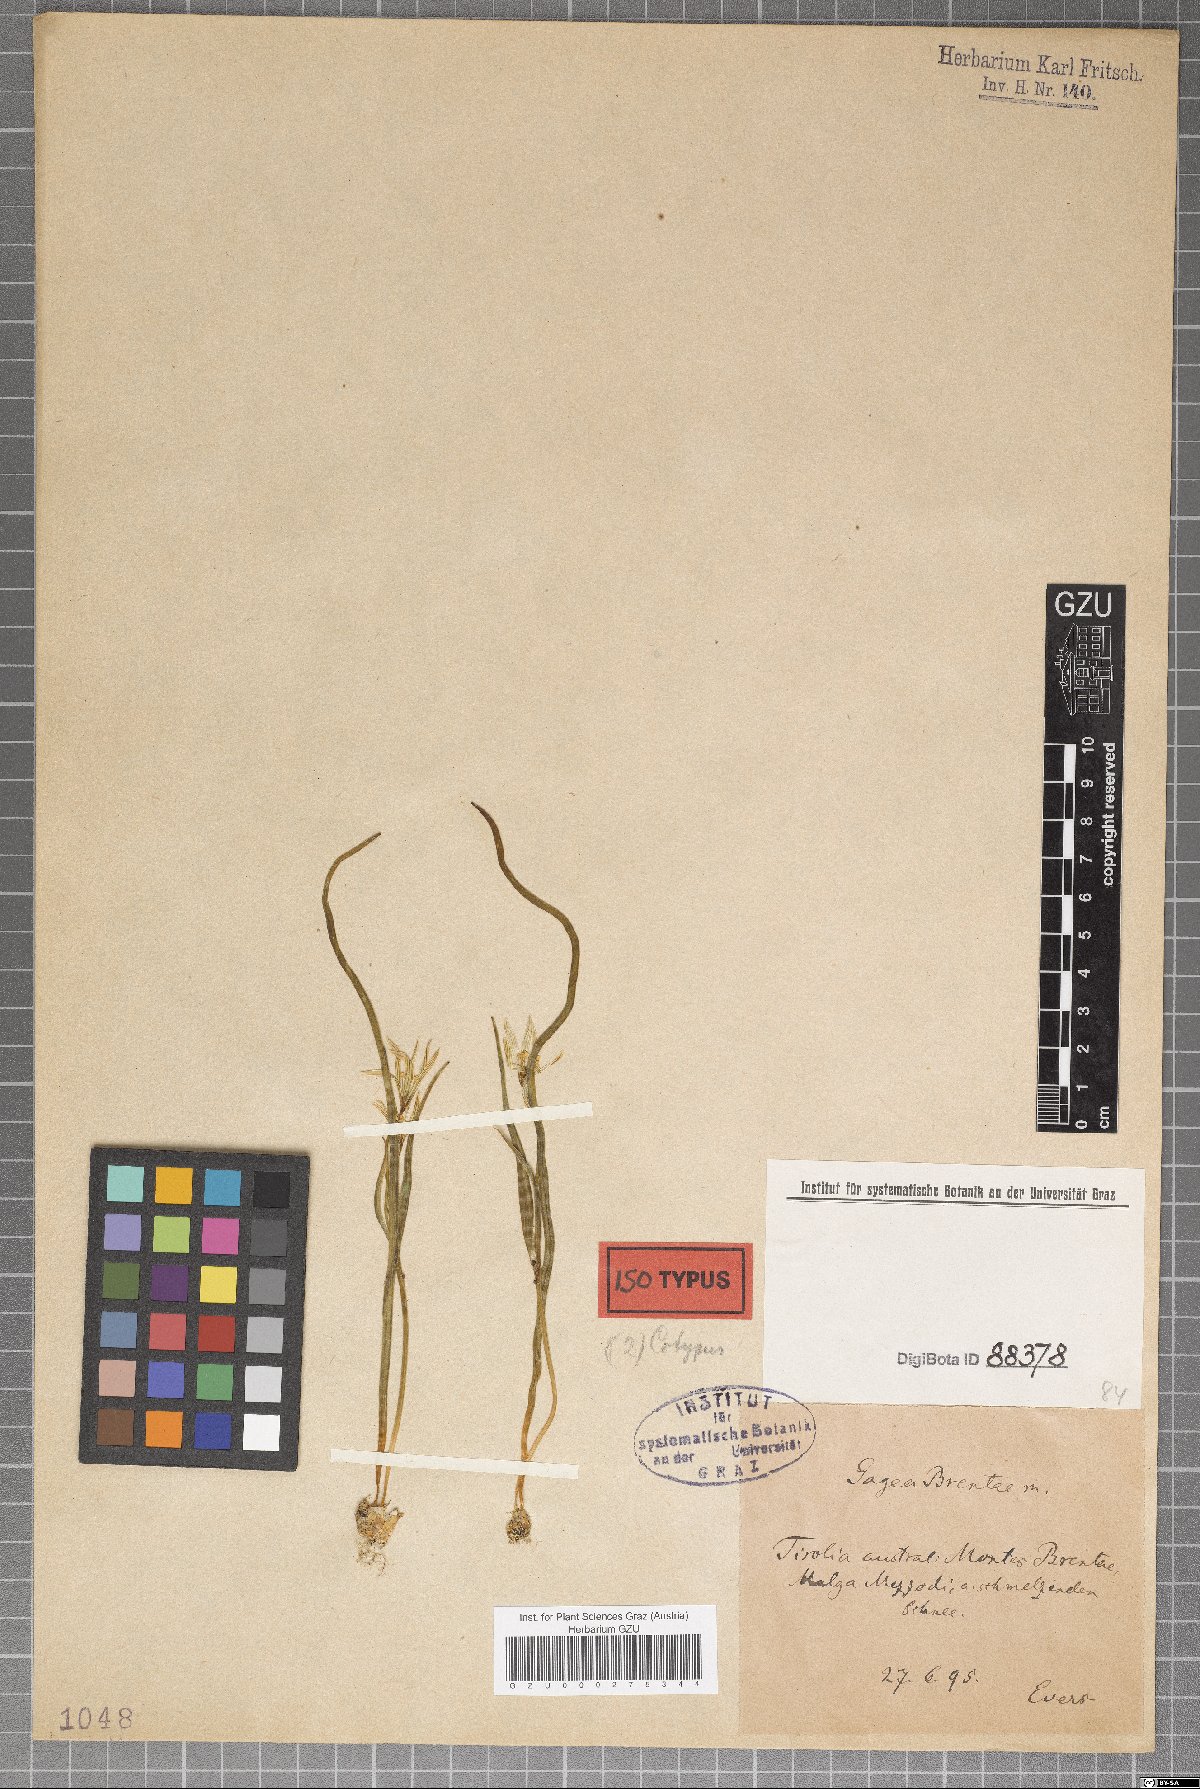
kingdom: Plantae
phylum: Tracheophyta
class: Liliopsida
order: Liliales
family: Liliaceae
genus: Gagea
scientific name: Gagea fragifera
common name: Lily
